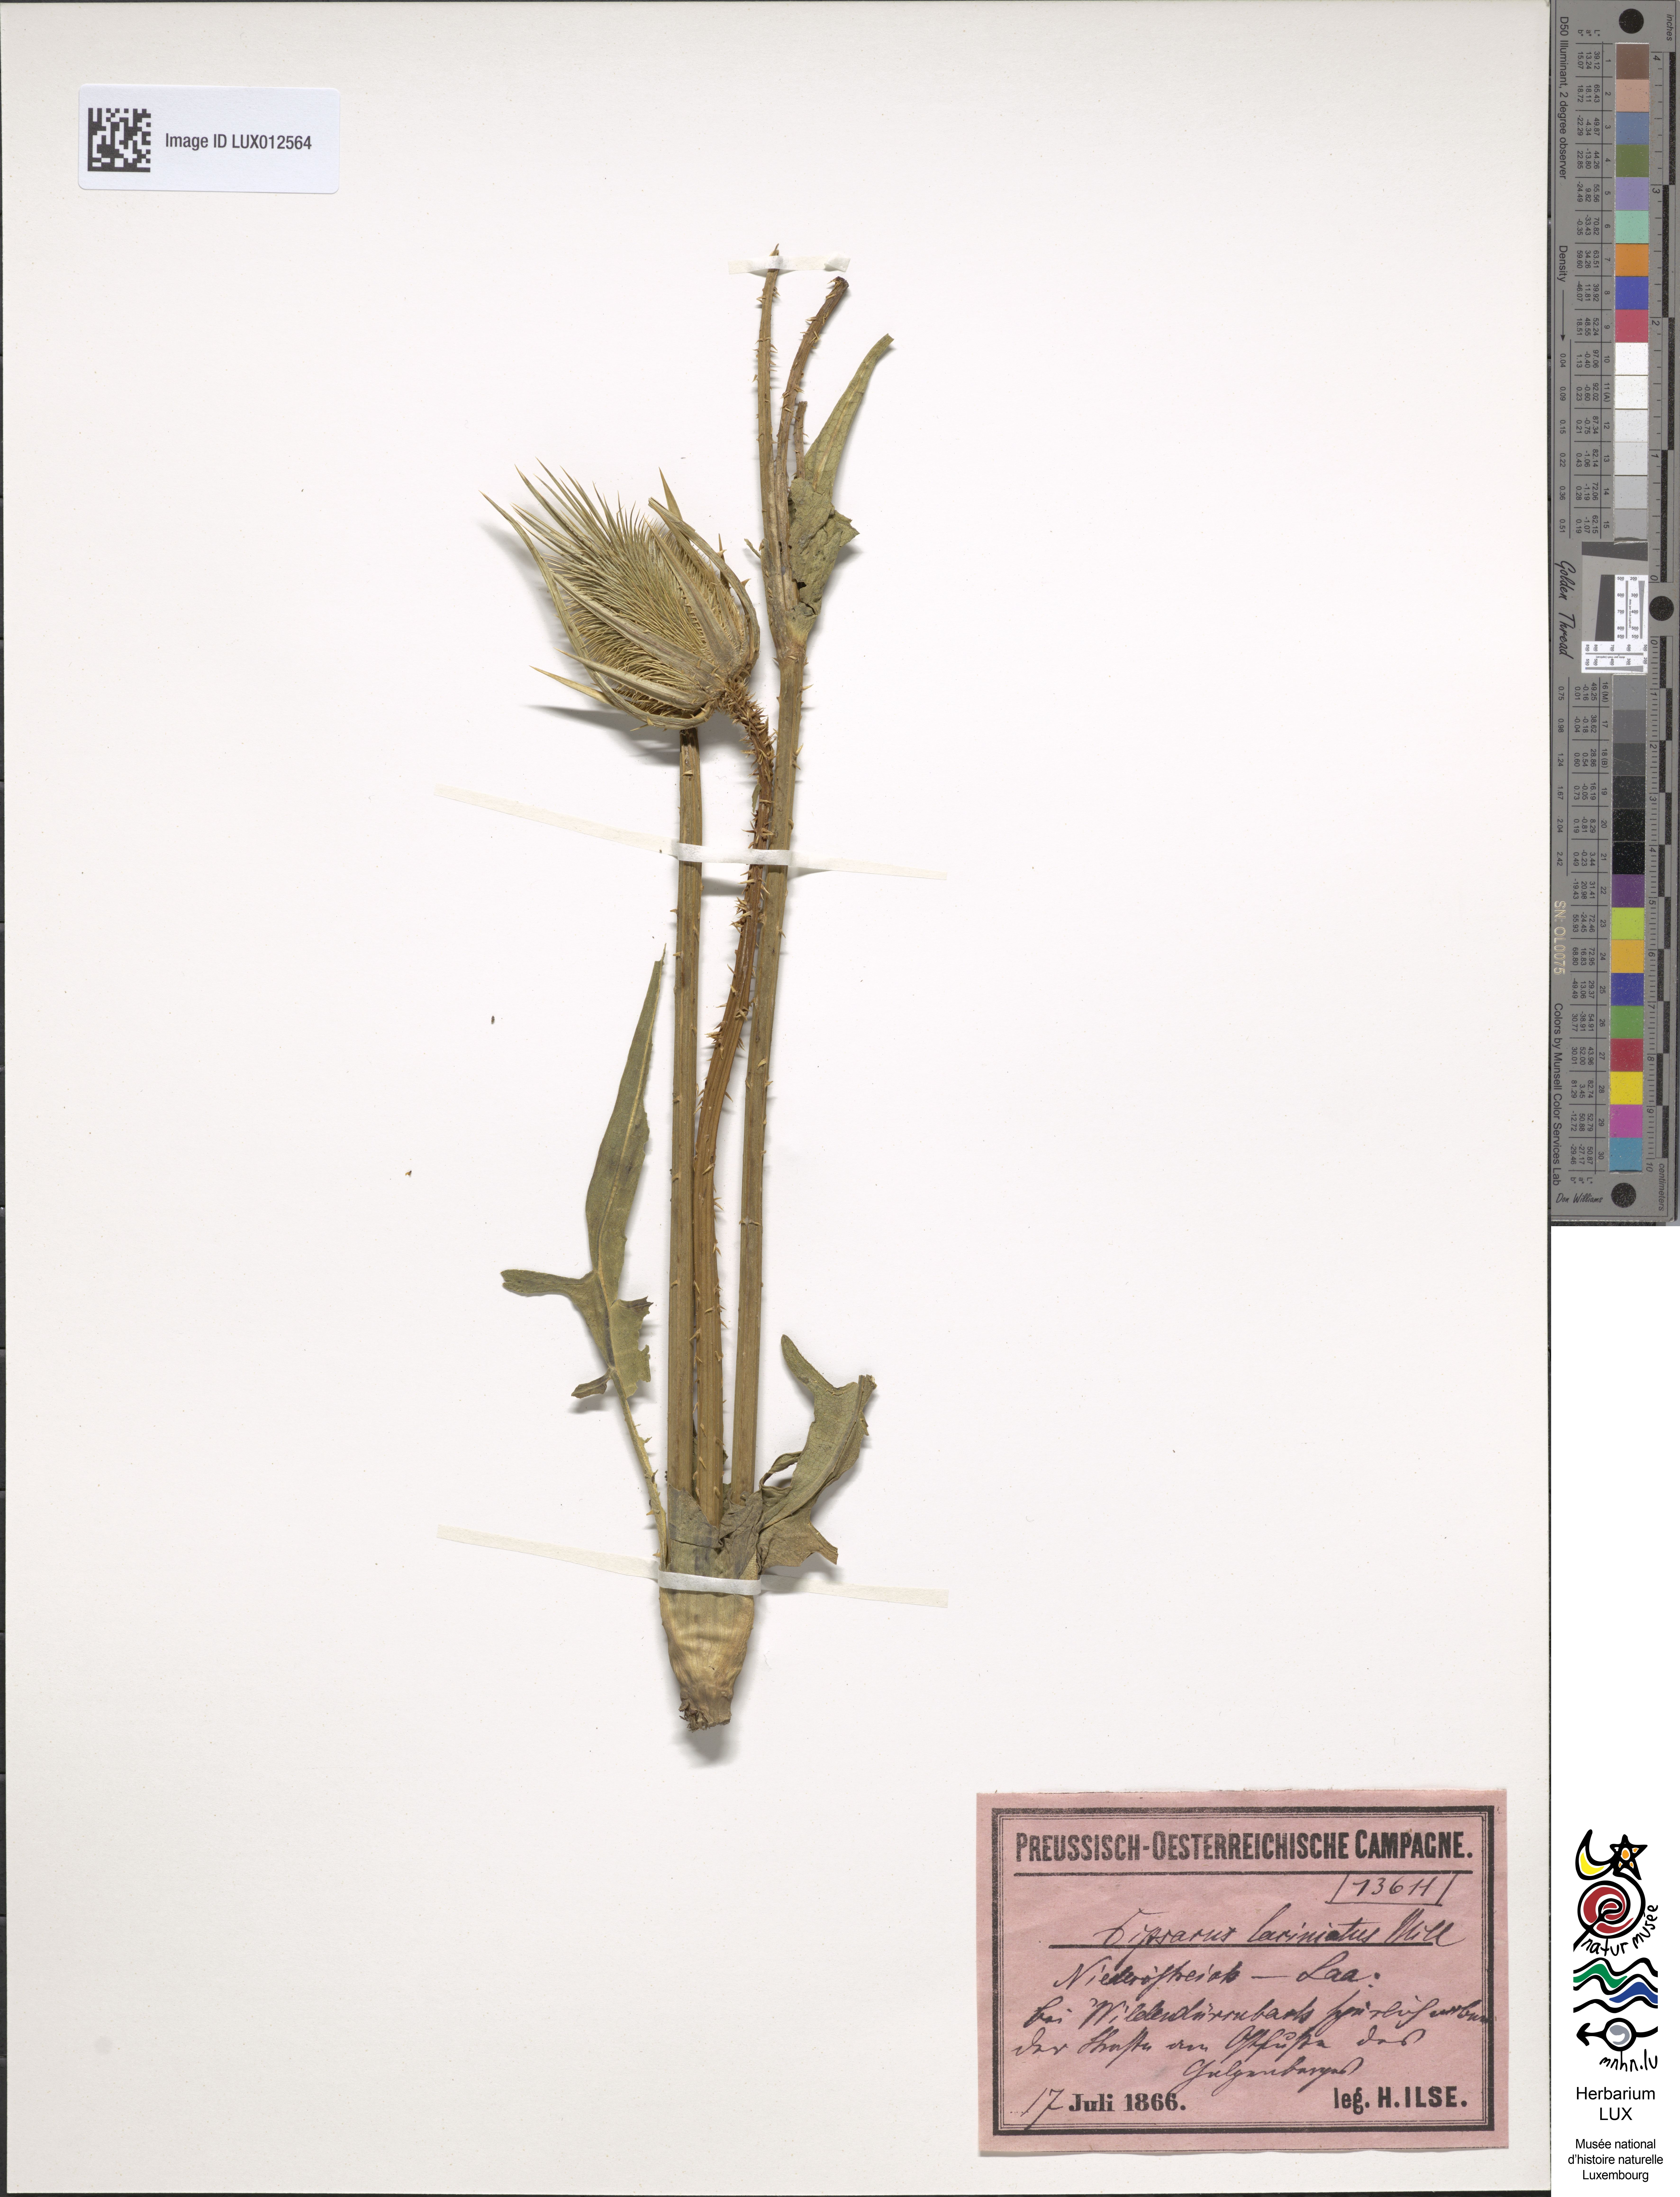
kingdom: Plantae
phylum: Tracheophyta
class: Magnoliopsida
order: Dipsacales
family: Caprifoliaceae
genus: Dipsacus
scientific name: Dipsacus laciniatus
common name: Cut-leaved teasel
